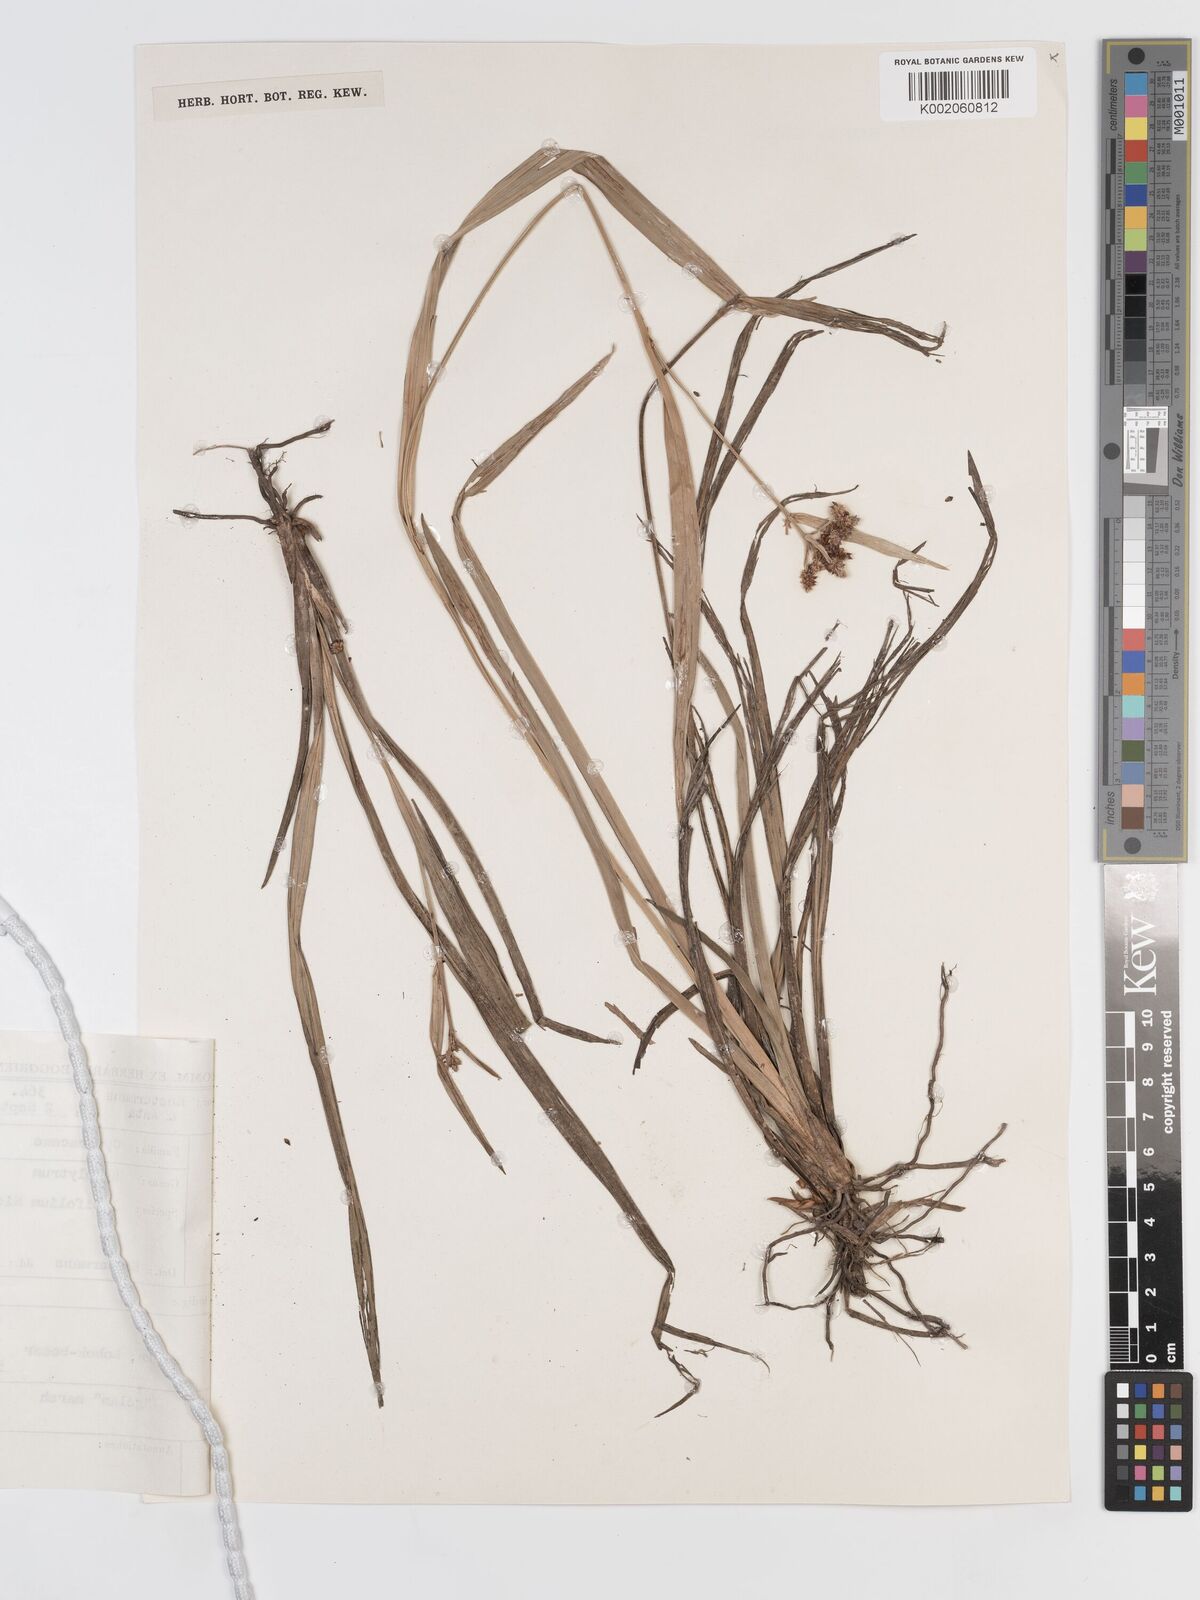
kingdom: Plantae
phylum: Tracheophyta
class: Liliopsida
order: Poales
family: Cyperaceae
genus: Hypolytrum
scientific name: Hypolytrum nemorum
